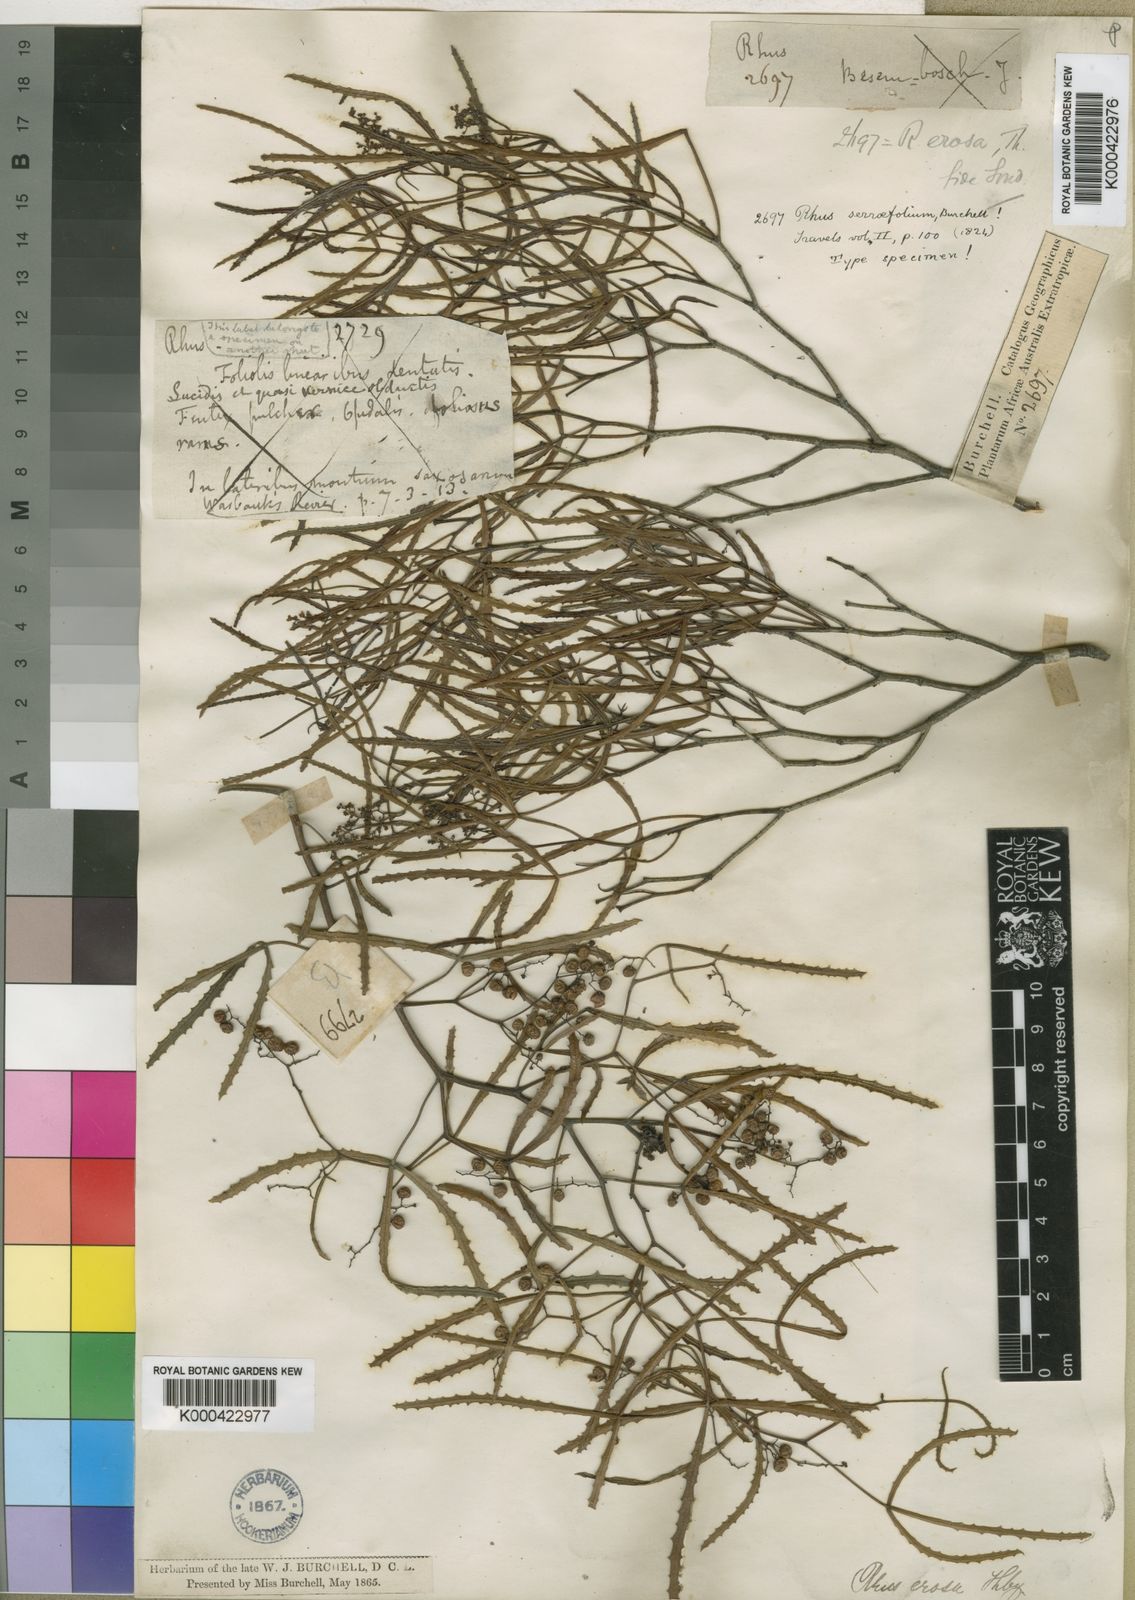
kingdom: Plantae
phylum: Tracheophyta
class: Magnoliopsida
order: Sapindales
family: Anacardiaceae
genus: Searsia
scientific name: Searsia erosa
